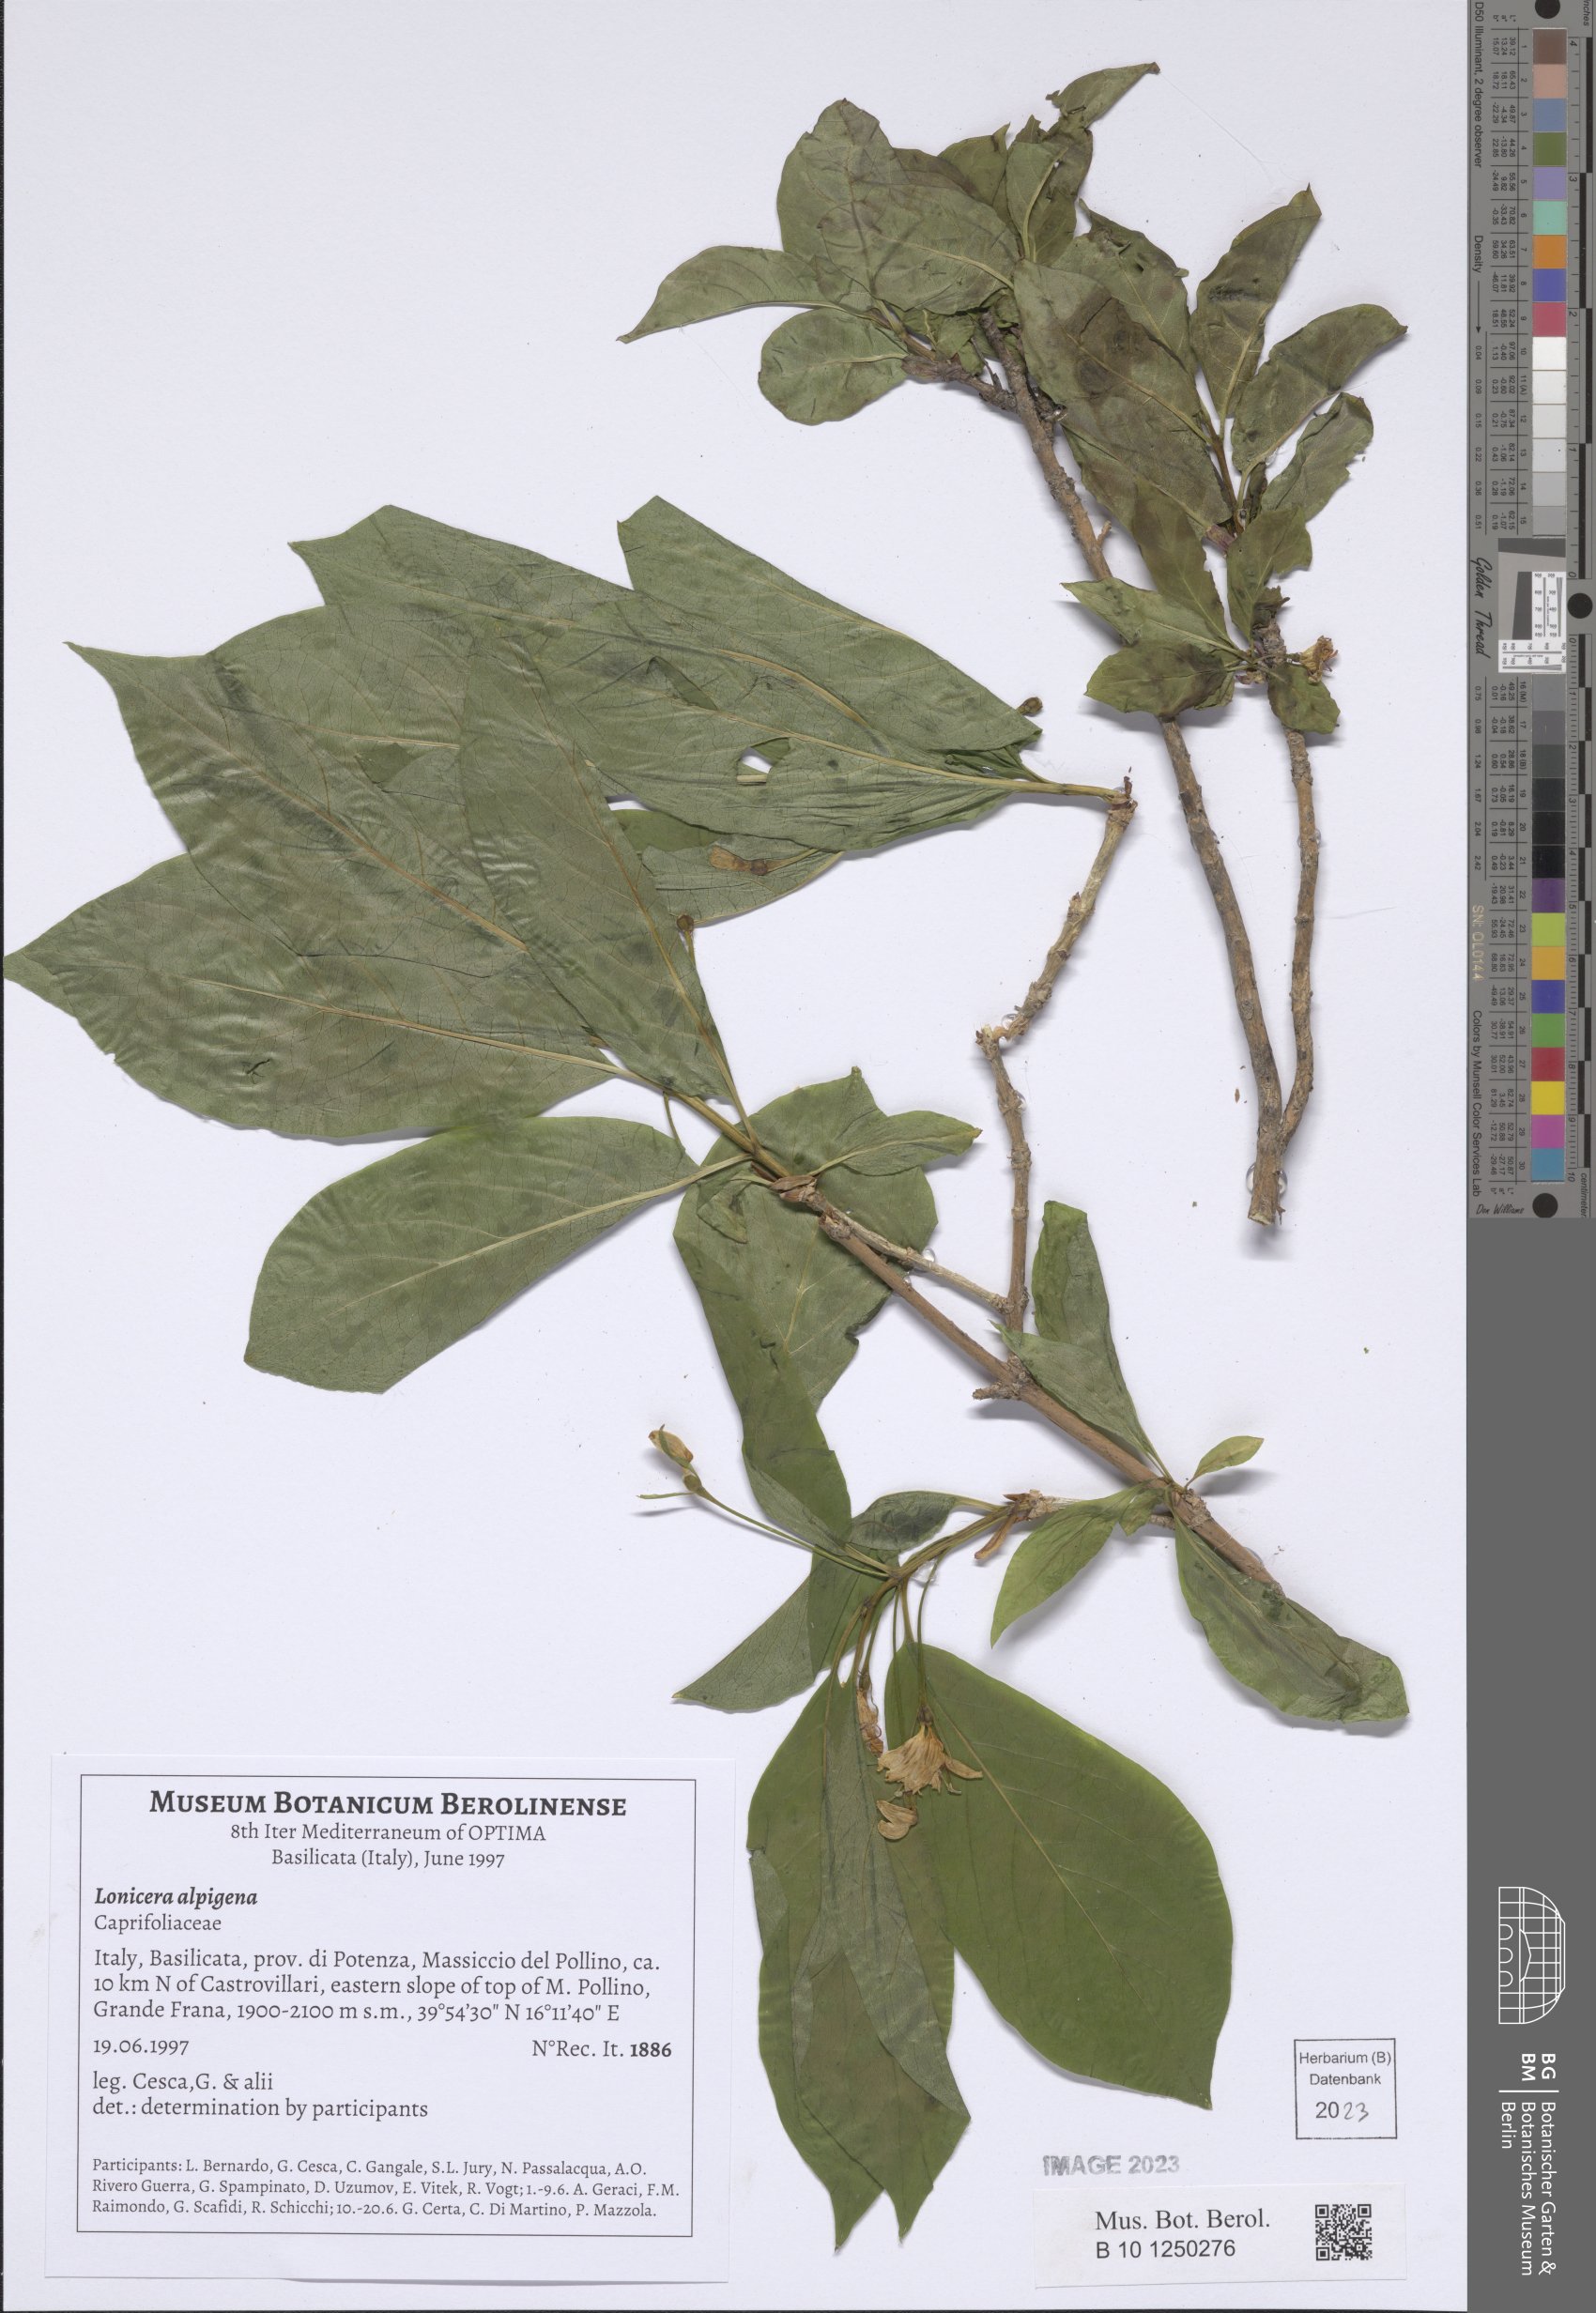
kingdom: Plantae
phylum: Tracheophyta
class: Magnoliopsida
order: Dipsacales
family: Caprifoliaceae
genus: Lonicera
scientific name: Lonicera alpigena
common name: Alpine honeysuckle
